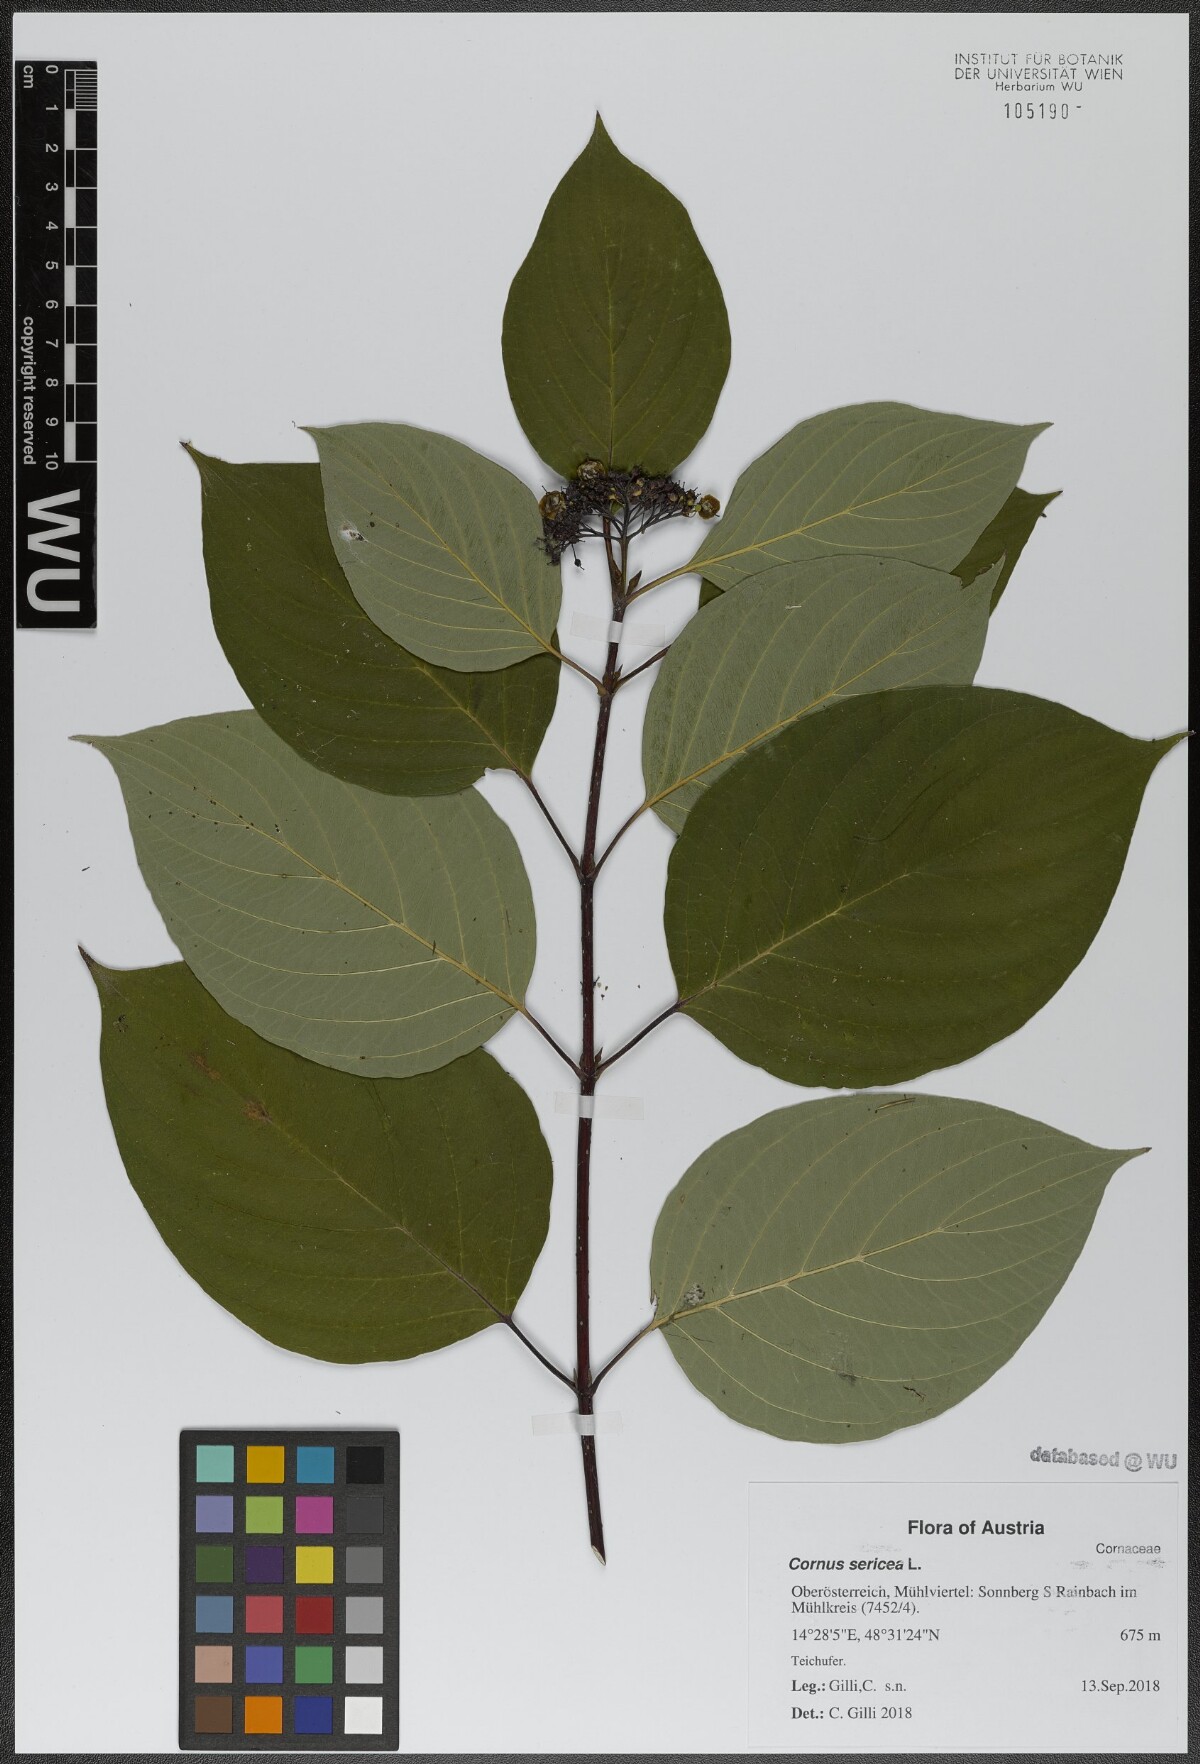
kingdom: Plantae
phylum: Tracheophyta
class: Magnoliopsida
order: Cornales
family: Cornaceae
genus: Cornus
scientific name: Cornus sericea
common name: Red-osier dogwood
